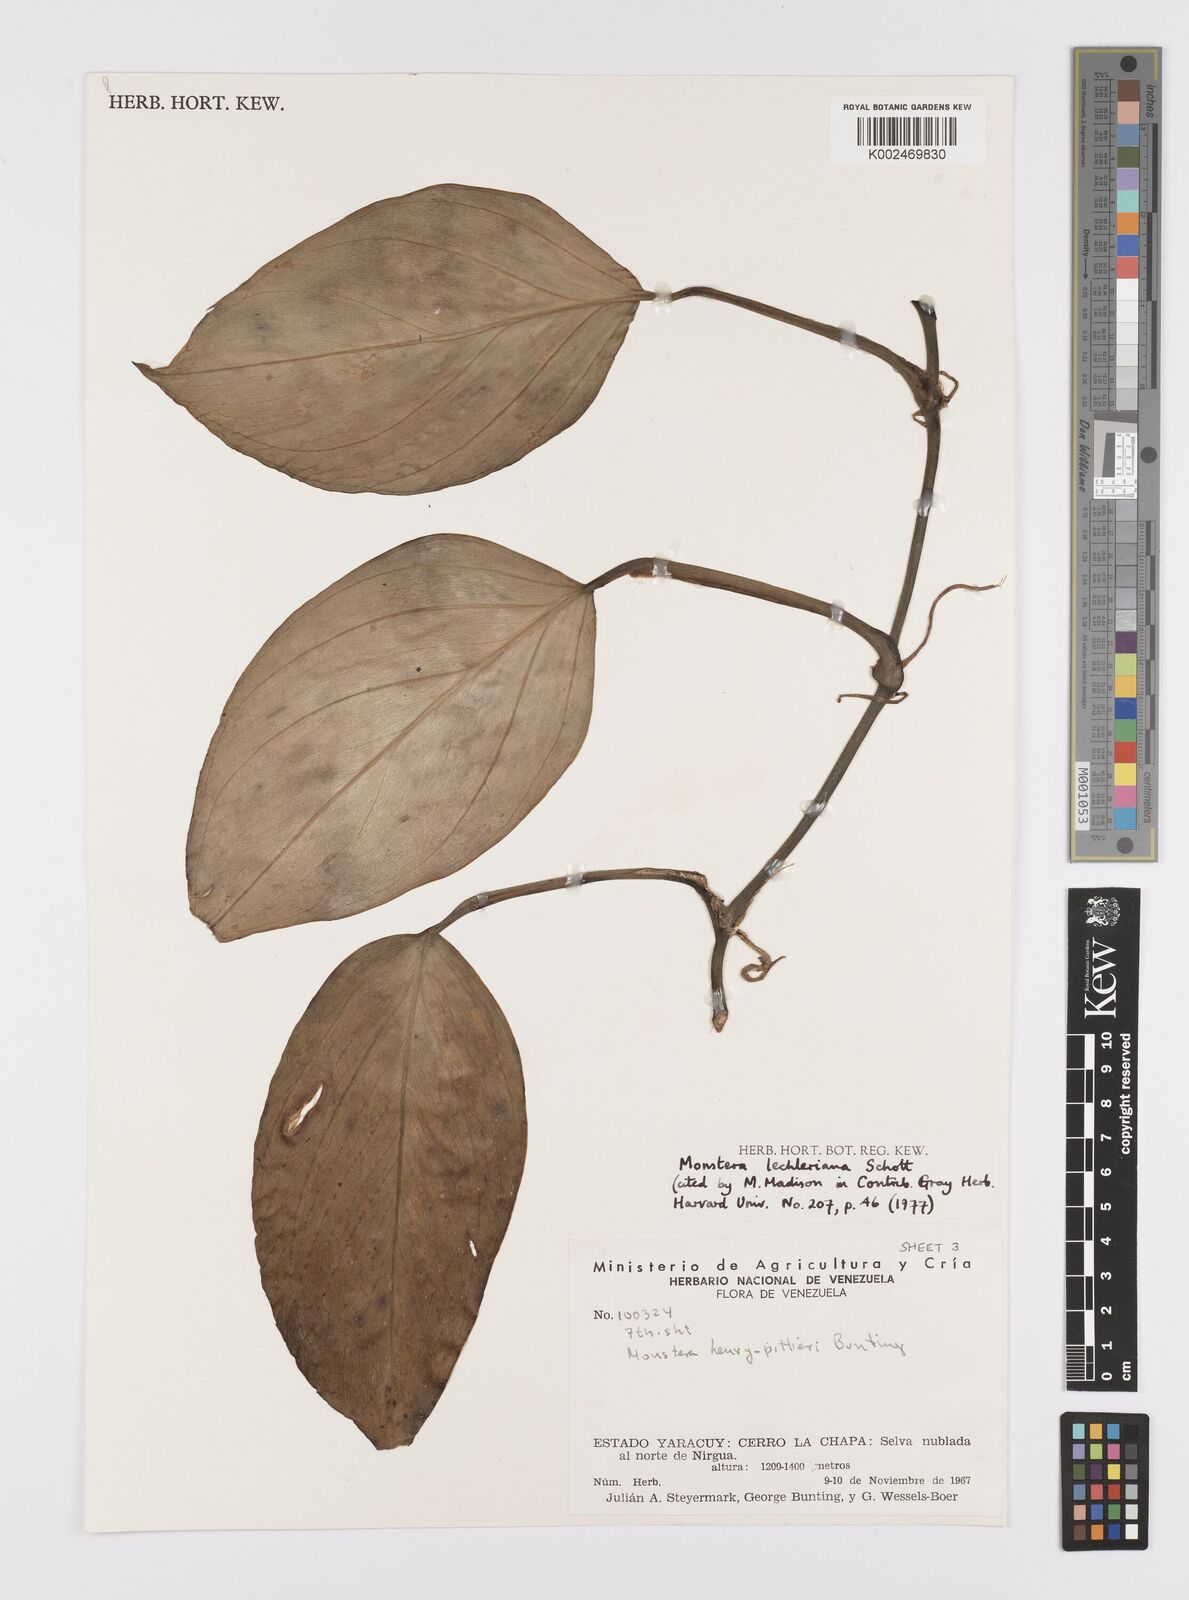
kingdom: Plantae
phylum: Tracheophyta
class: Liliopsida
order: Alismatales
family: Araceae
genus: Monstera
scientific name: Monstera lechleriana
